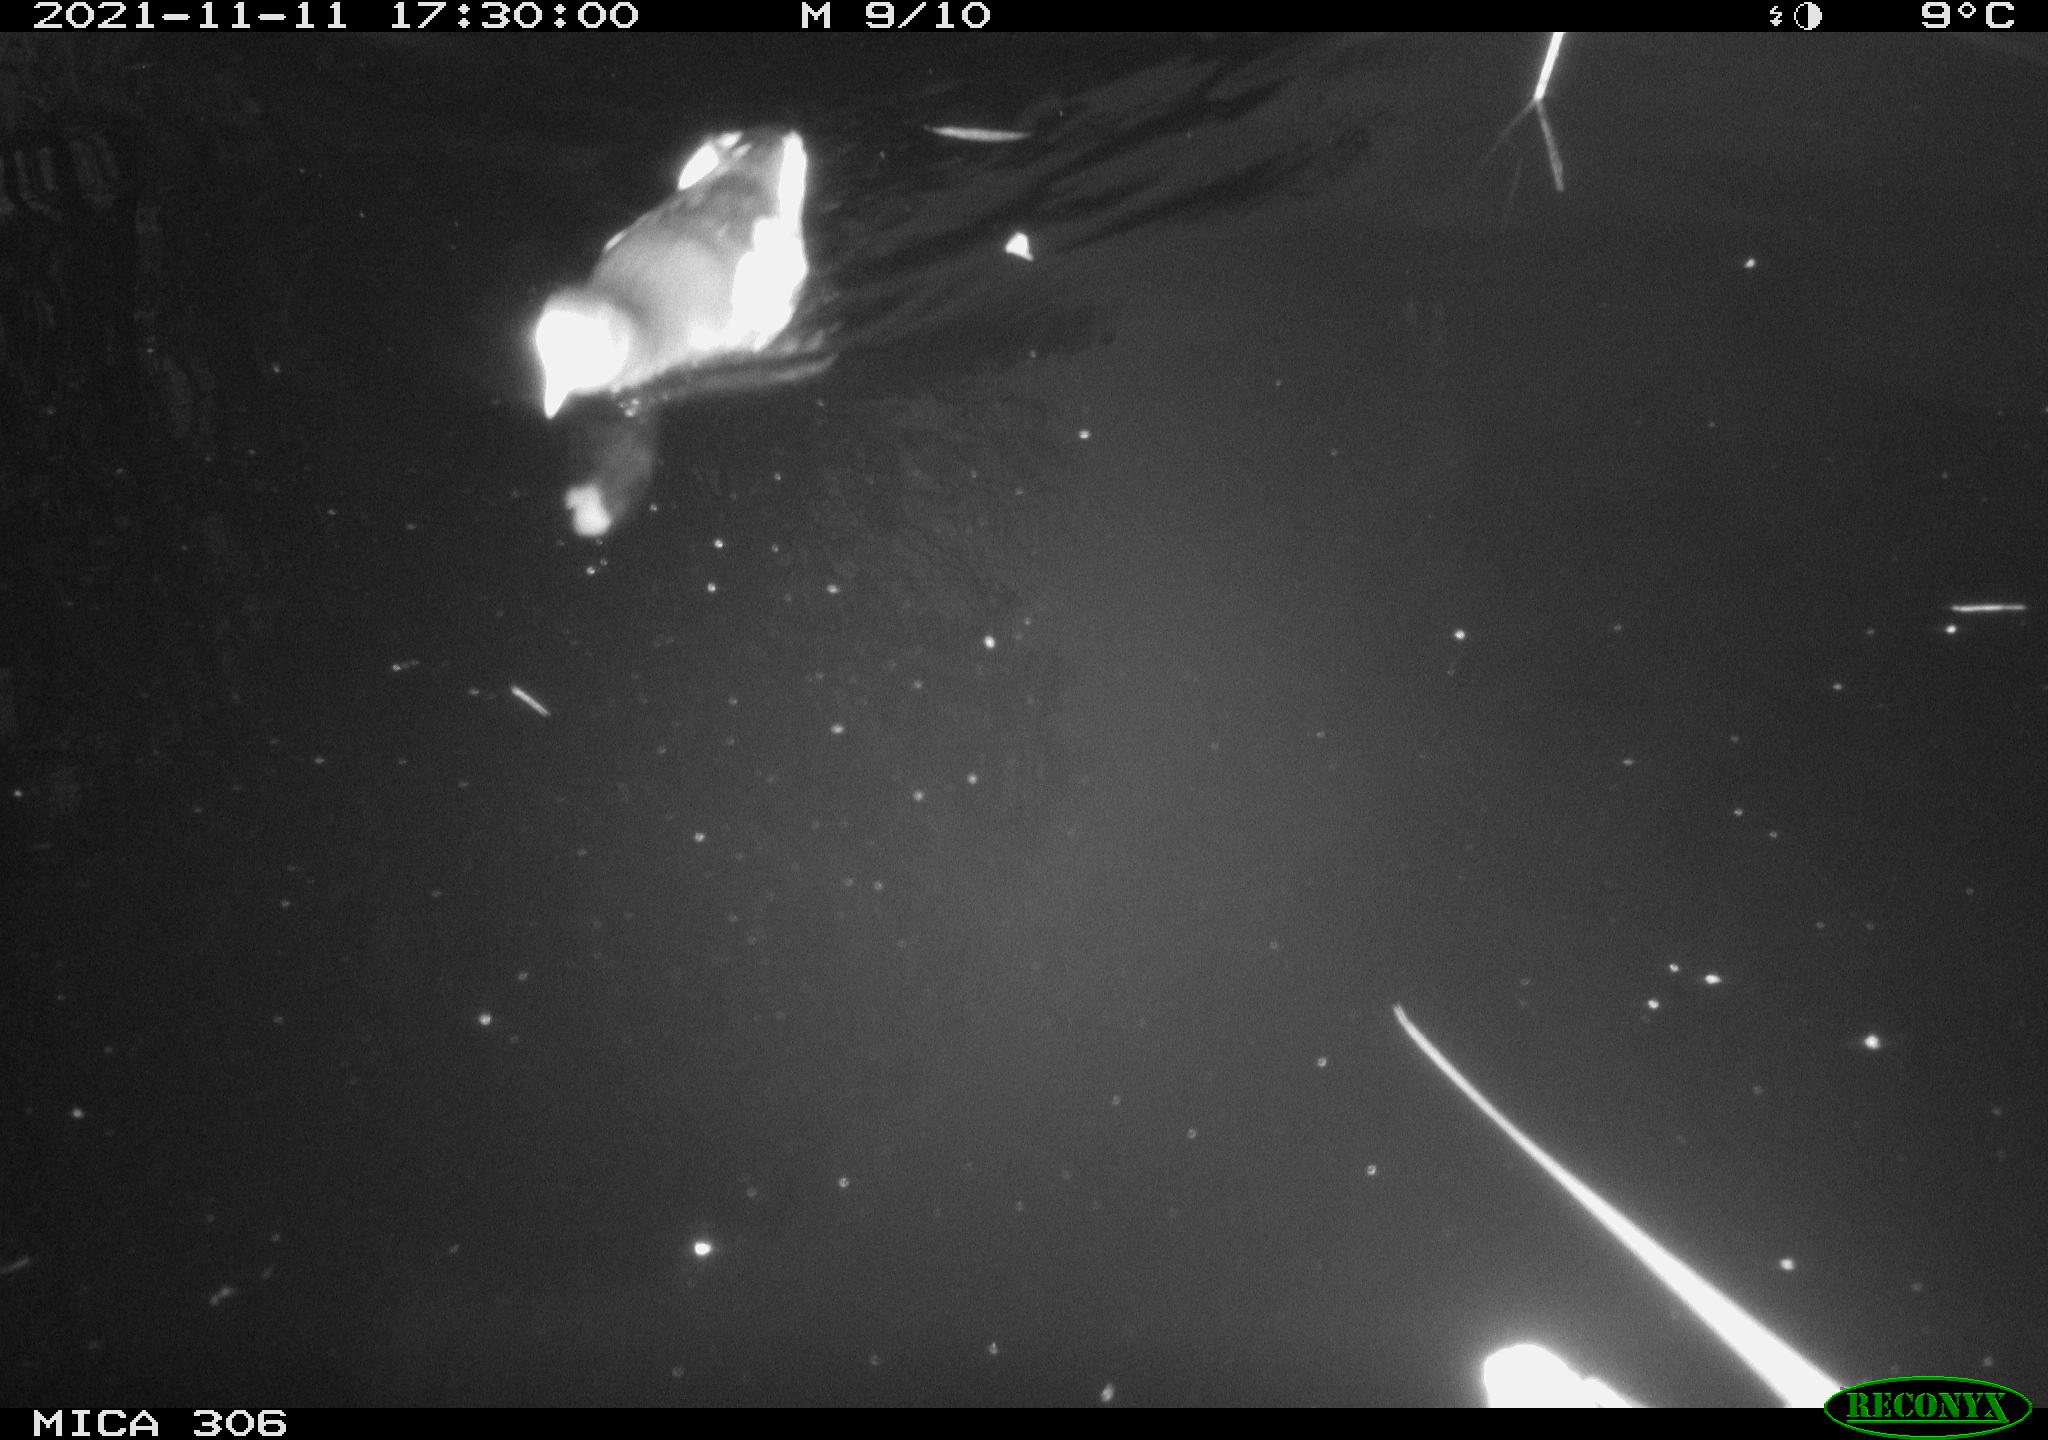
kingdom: Animalia
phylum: Chordata
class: Aves
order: Gruiformes
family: Rallidae
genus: Fulica
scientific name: Fulica atra
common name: Eurasian coot
